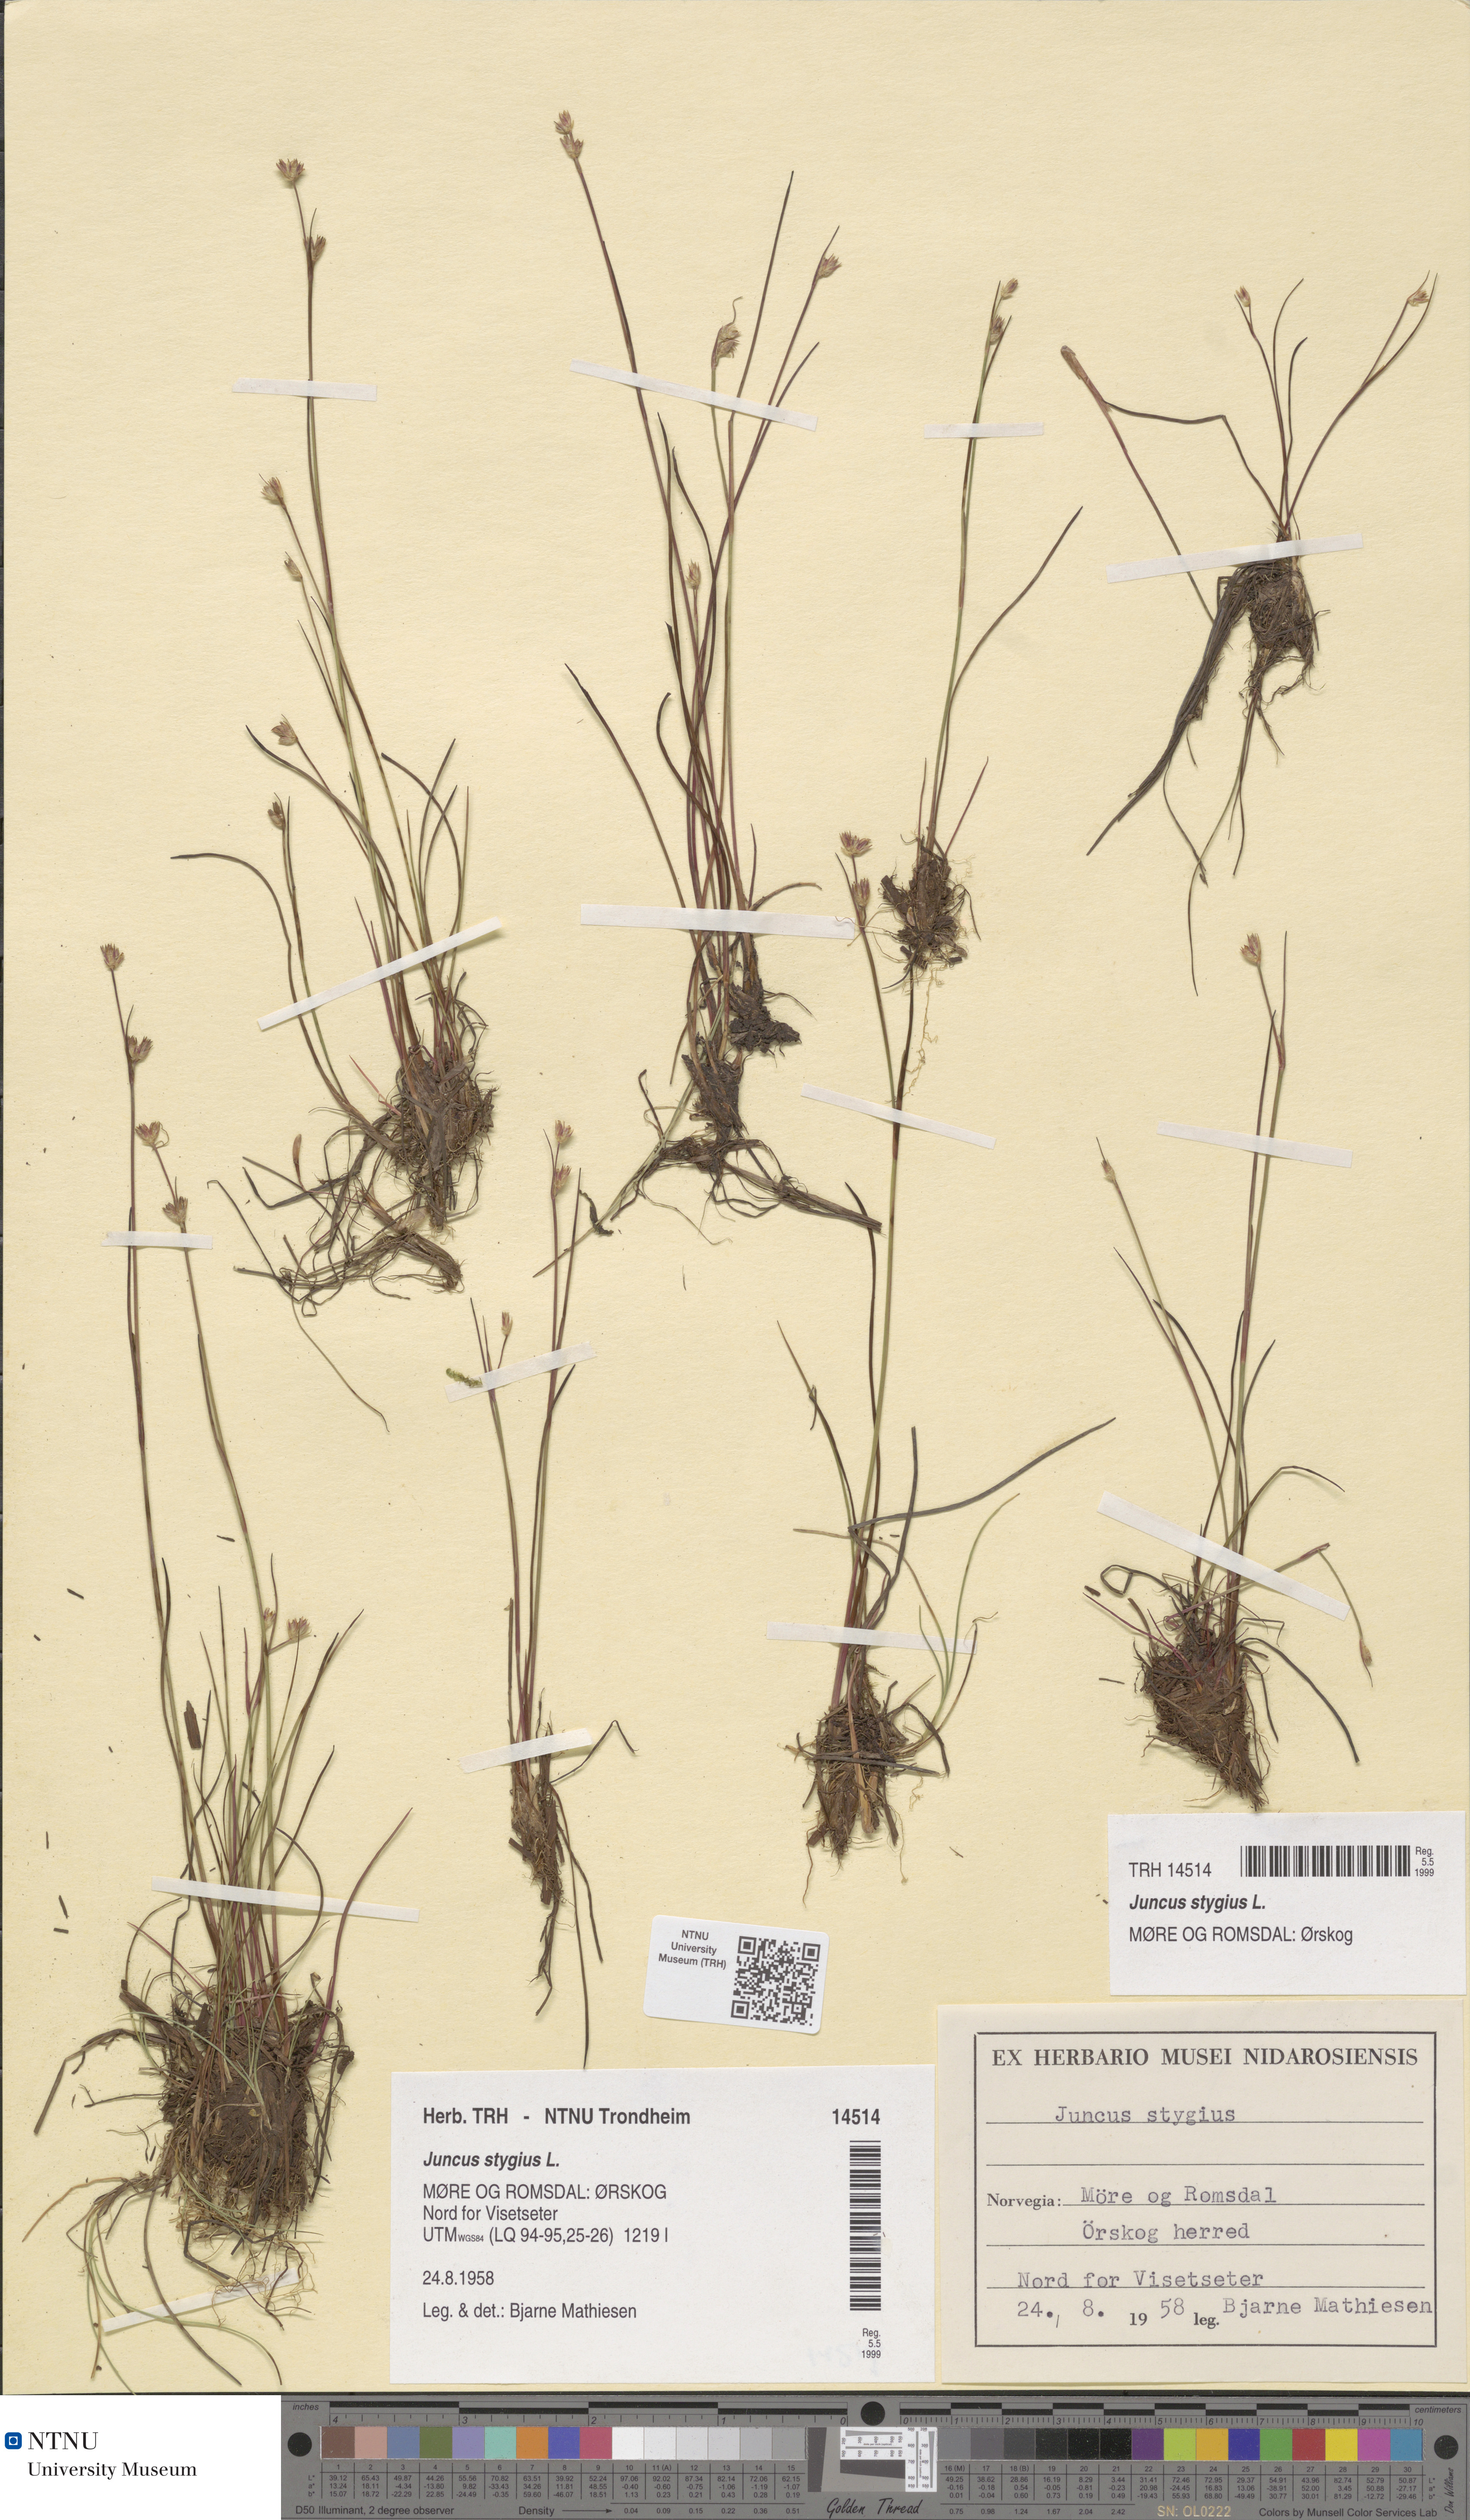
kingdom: Plantae
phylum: Tracheophyta
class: Liliopsida
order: Poales
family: Juncaceae
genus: Juncus
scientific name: Juncus stygius
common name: Bog rush
